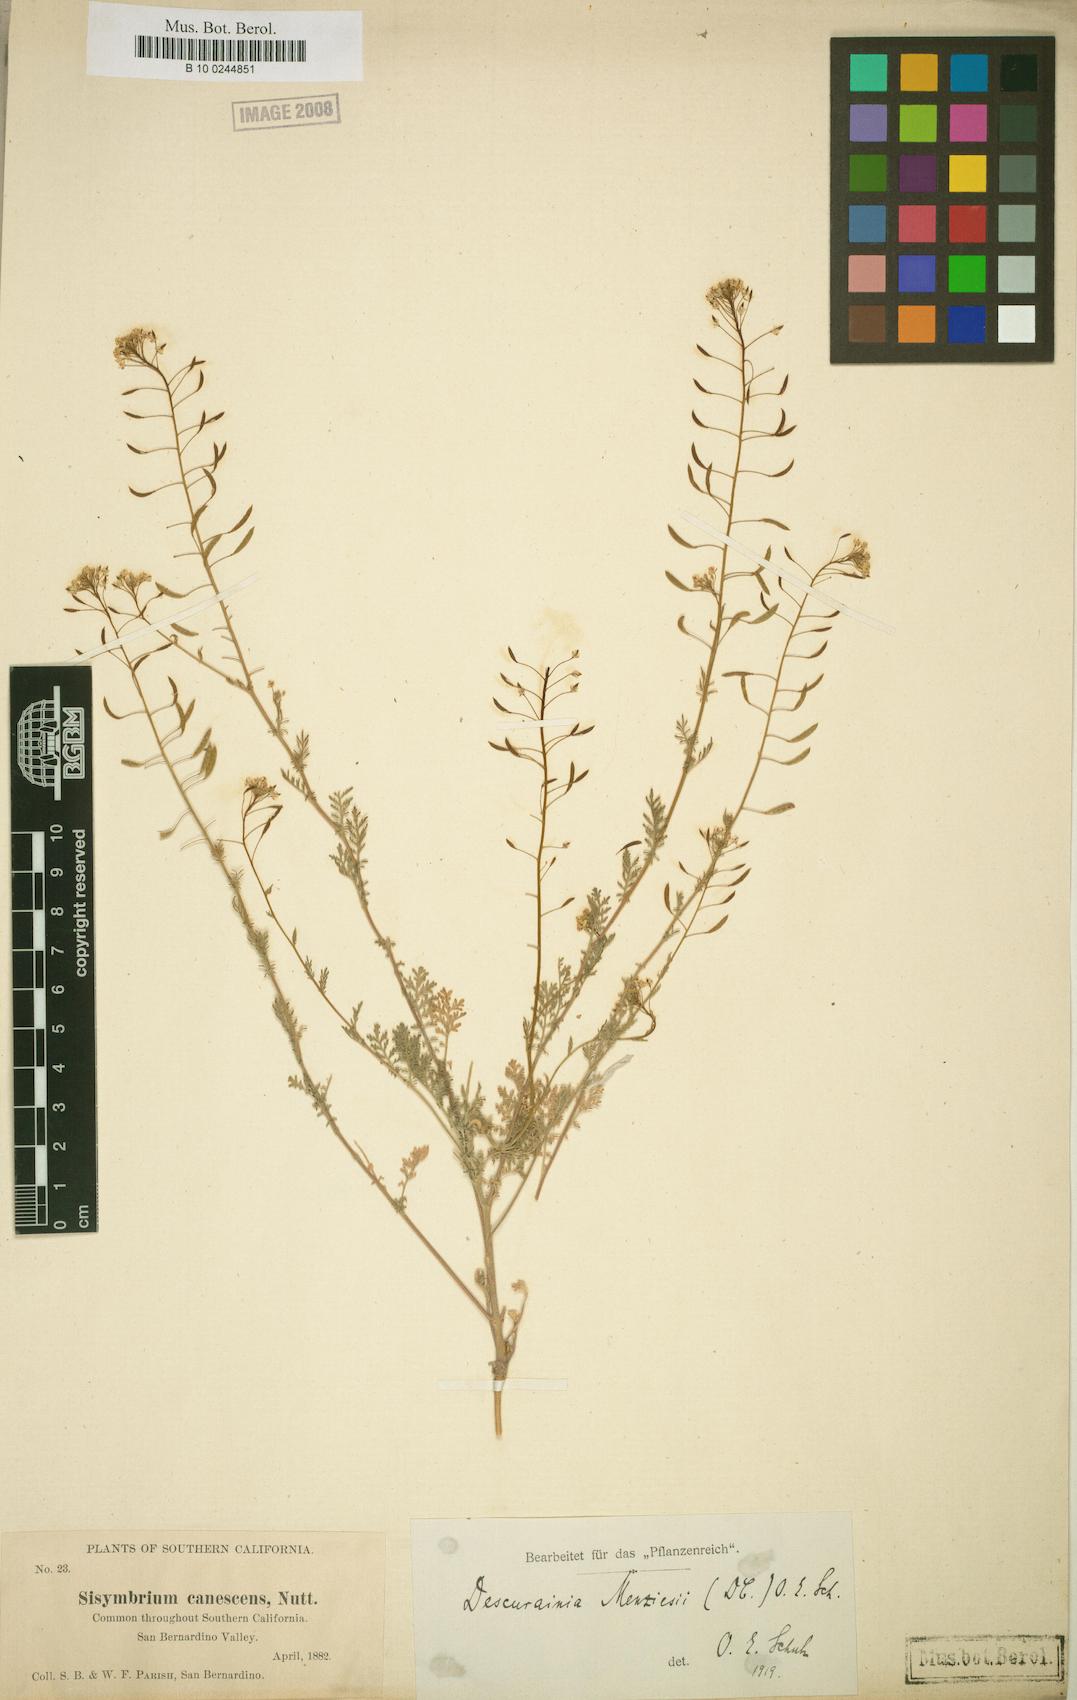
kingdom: Plantae
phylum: Tracheophyta
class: Magnoliopsida
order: Brassicales
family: Brassicaceae
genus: Descurainia
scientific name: Descurainia pinnata
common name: Western tansy mustard
